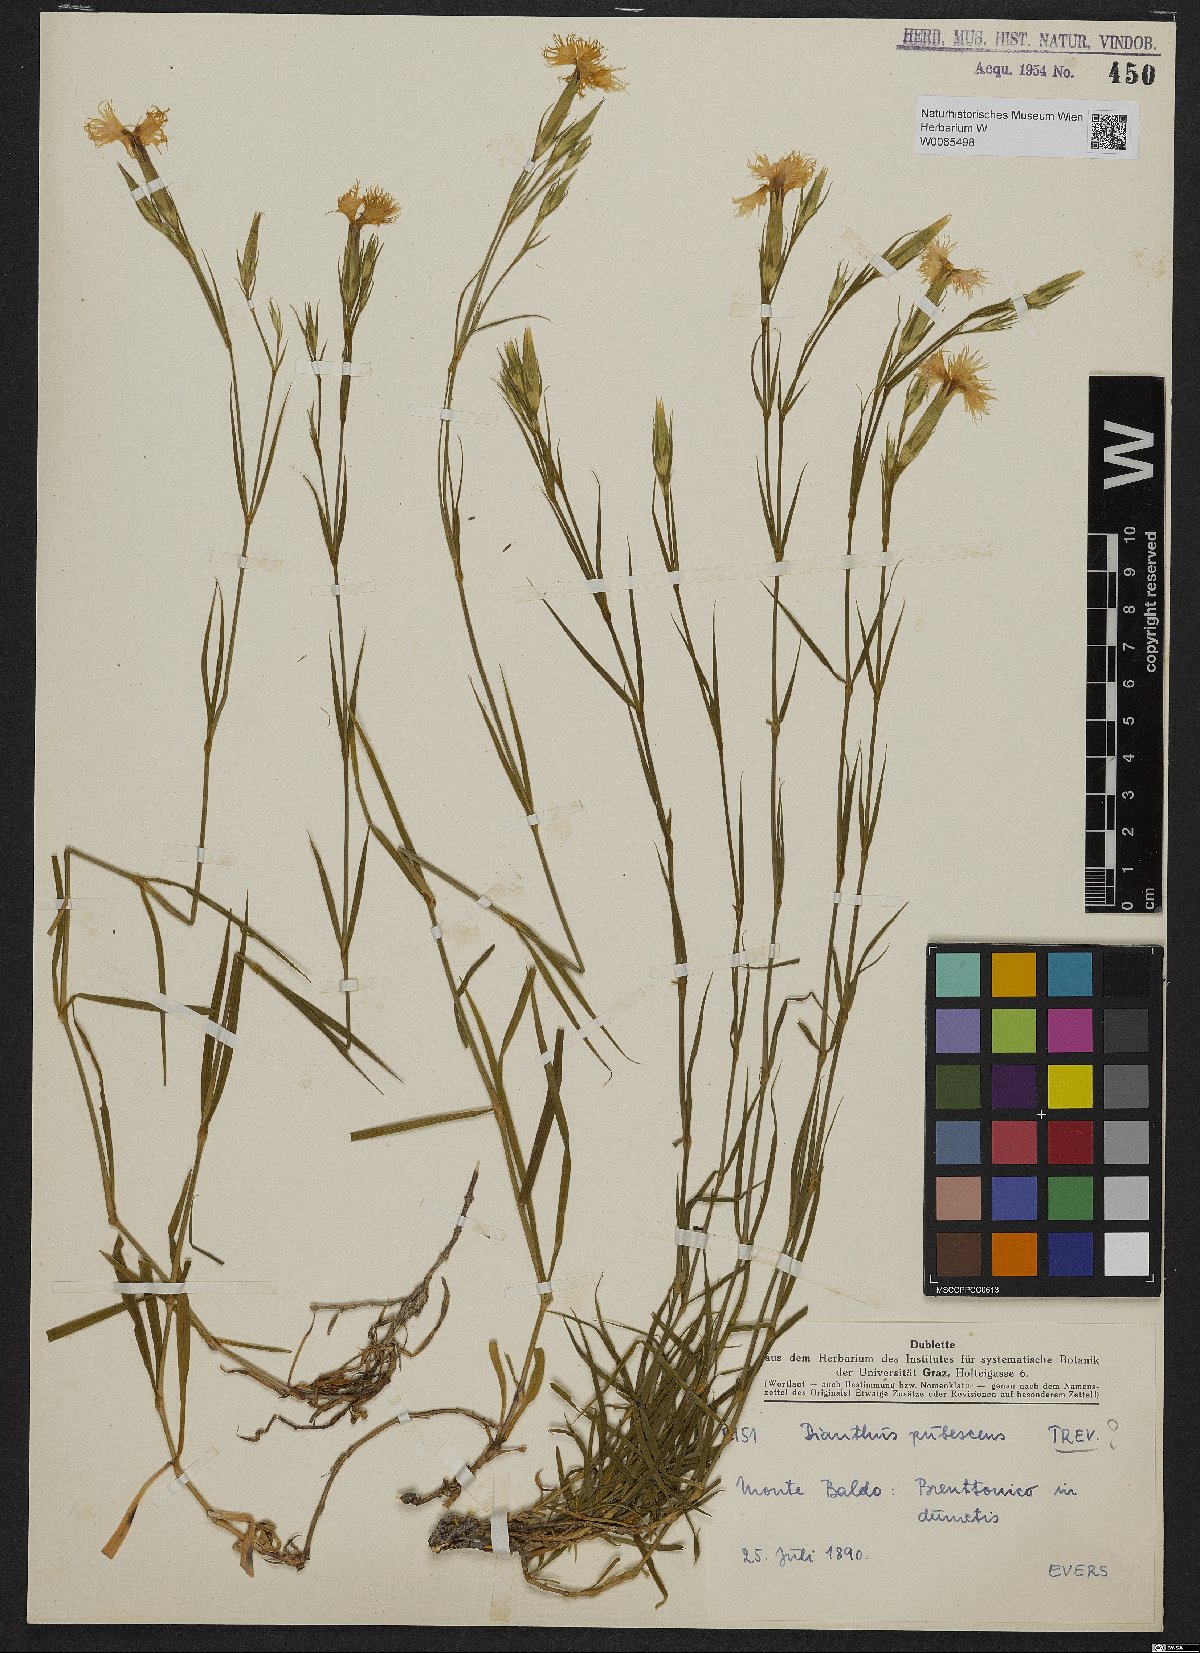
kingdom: Plantae
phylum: Tracheophyta
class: Magnoliopsida
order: Caryophyllales
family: Caryophyllaceae
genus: Dianthus
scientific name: Dianthus erubescens
